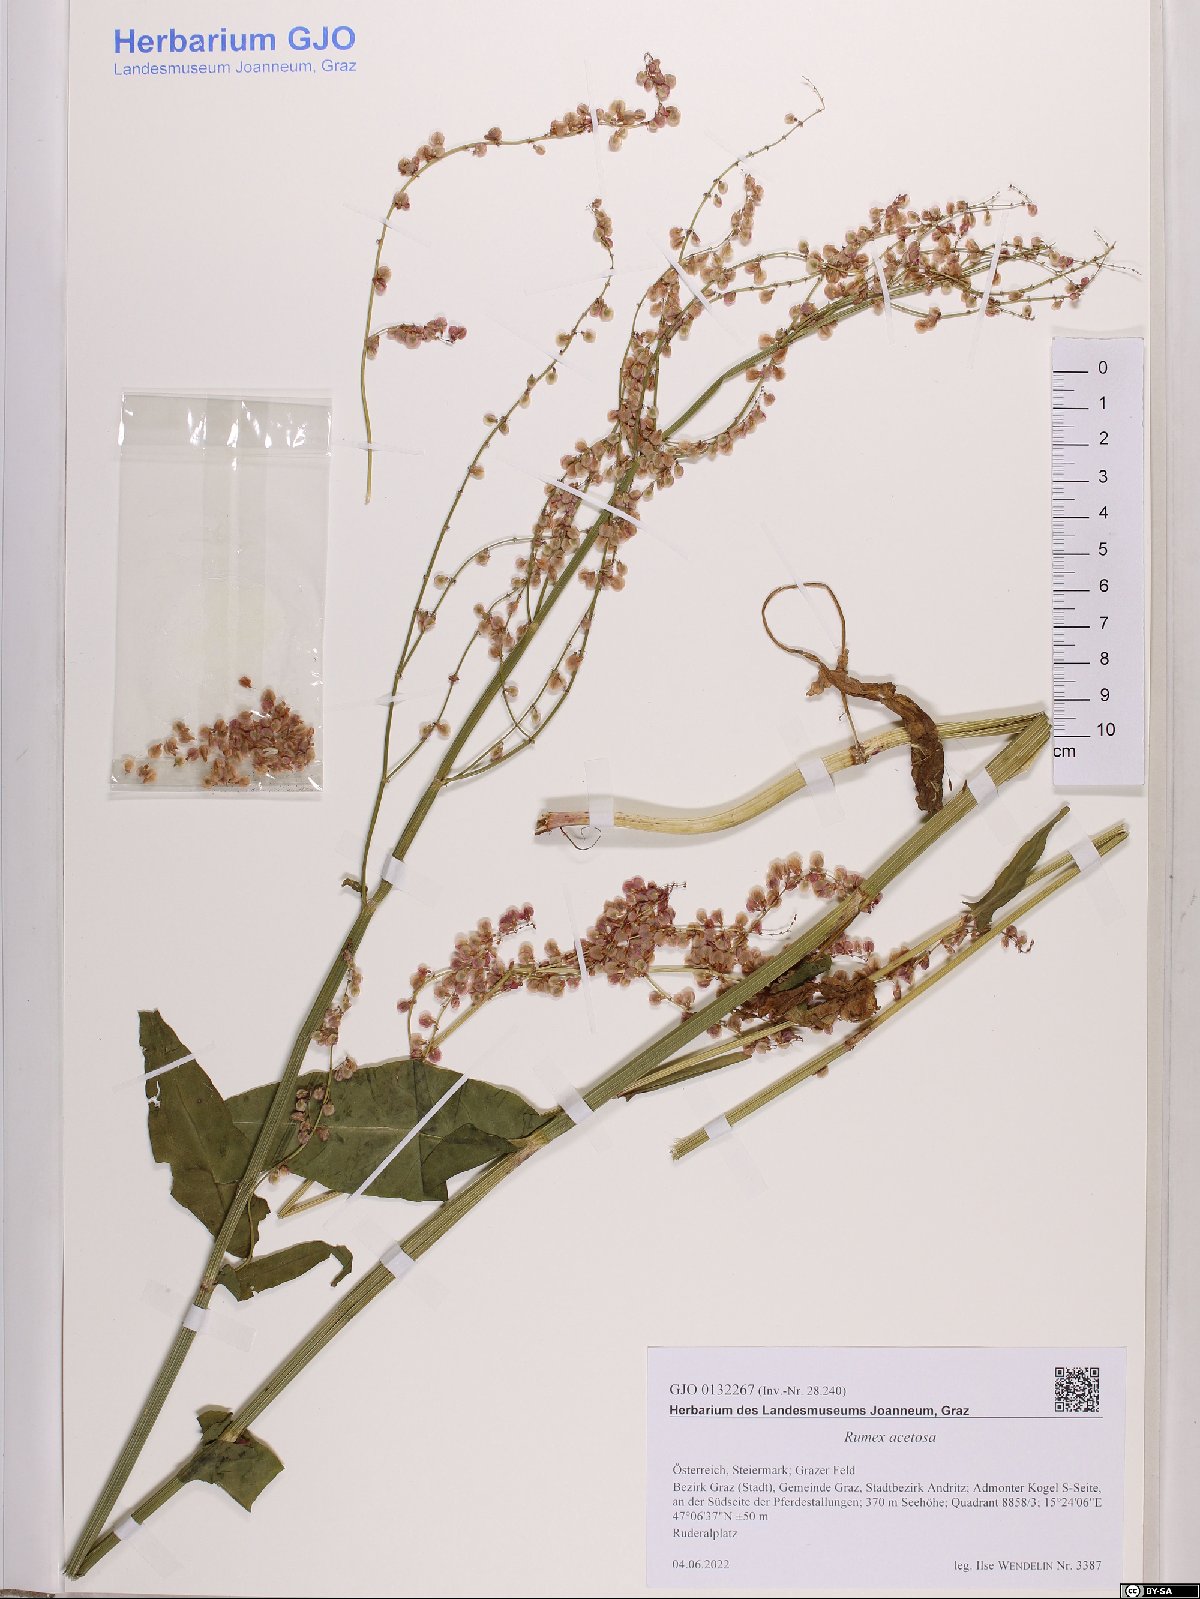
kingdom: Plantae
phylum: Tracheophyta
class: Magnoliopsida
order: Caryophyllales
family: Polygonaceae
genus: Rumex
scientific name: Rumex acetosa
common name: Garden sorrel
